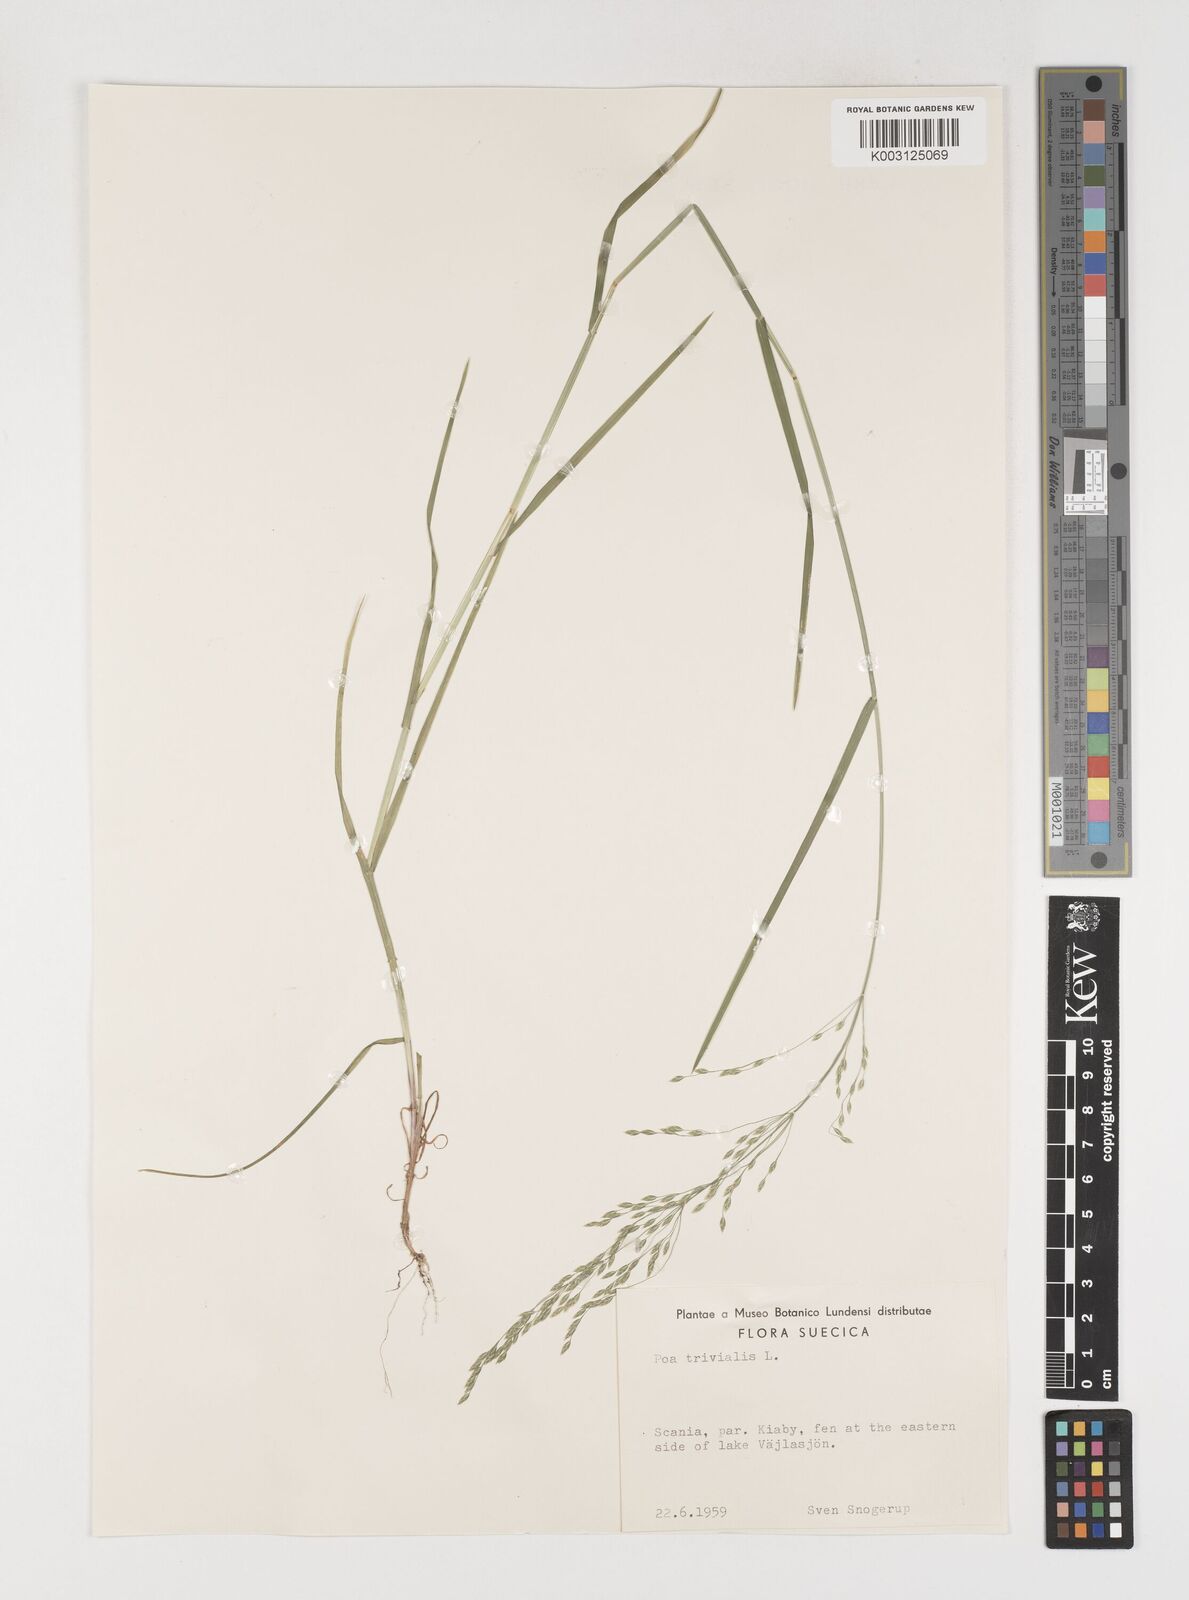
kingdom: Plantae
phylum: Tracheophyta
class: Liliopsida
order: Poales
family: Poaceae
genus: Poa
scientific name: Poa trivialis
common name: Rough bluegrass
